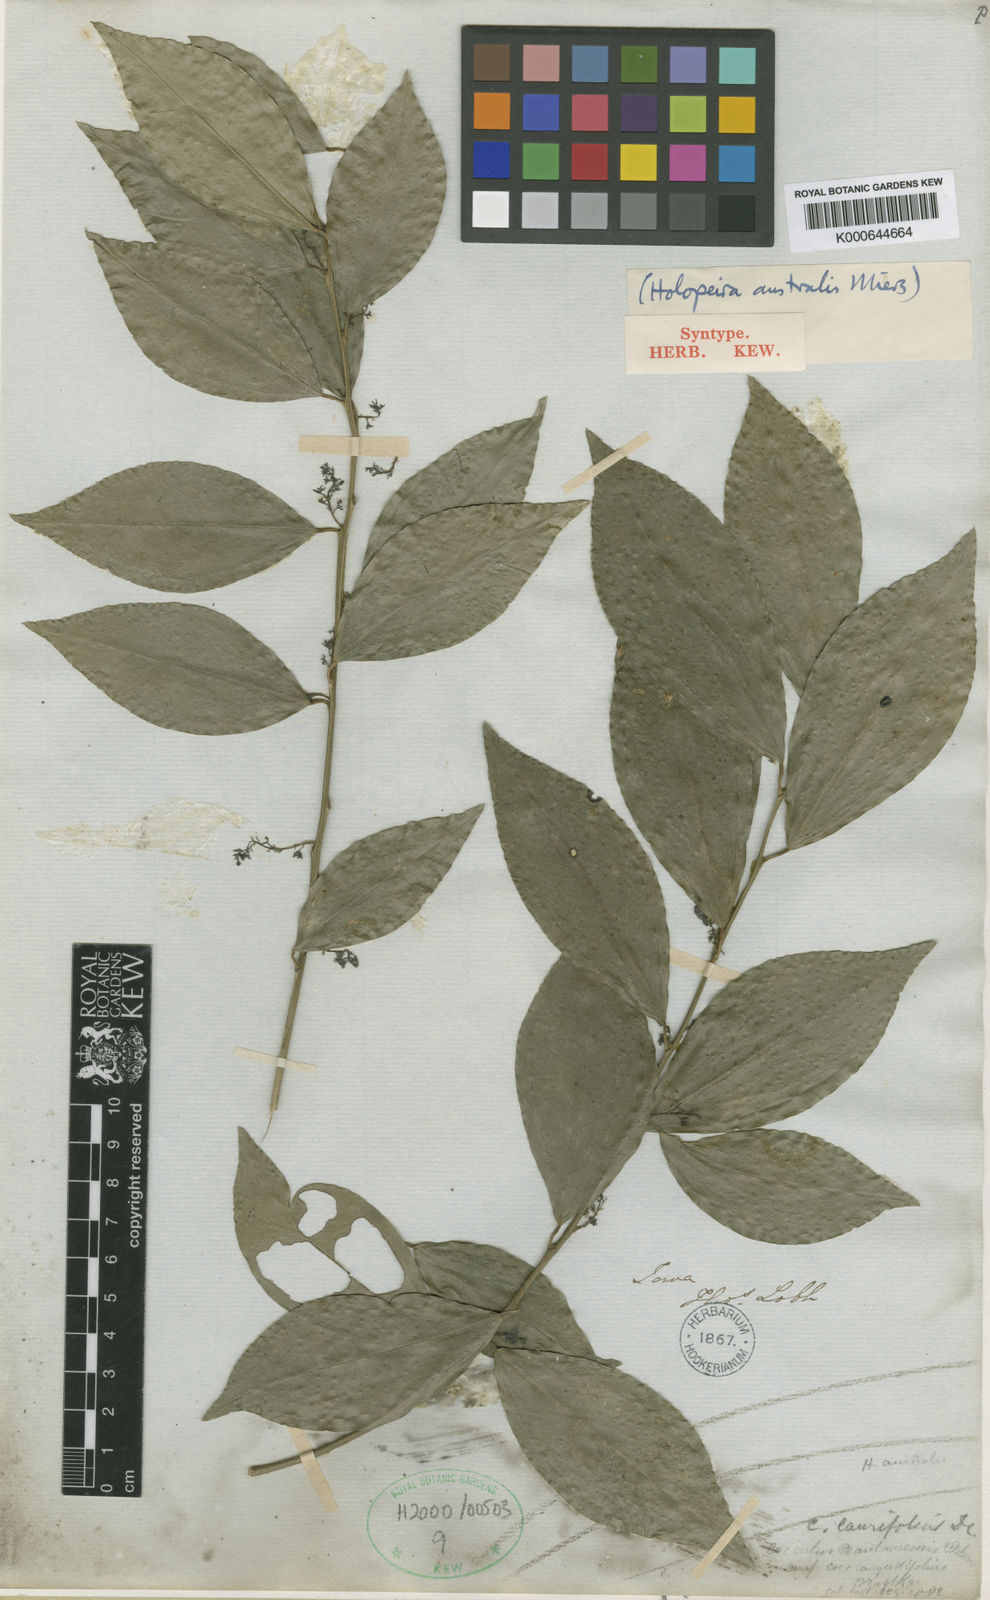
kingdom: Plantae
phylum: Tracheophyta
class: Magnoliopsida
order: Ranunculales
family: Menispermaceae
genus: Cocculus
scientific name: Cocculus laurifolius
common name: Laurel-leaf snailseed
